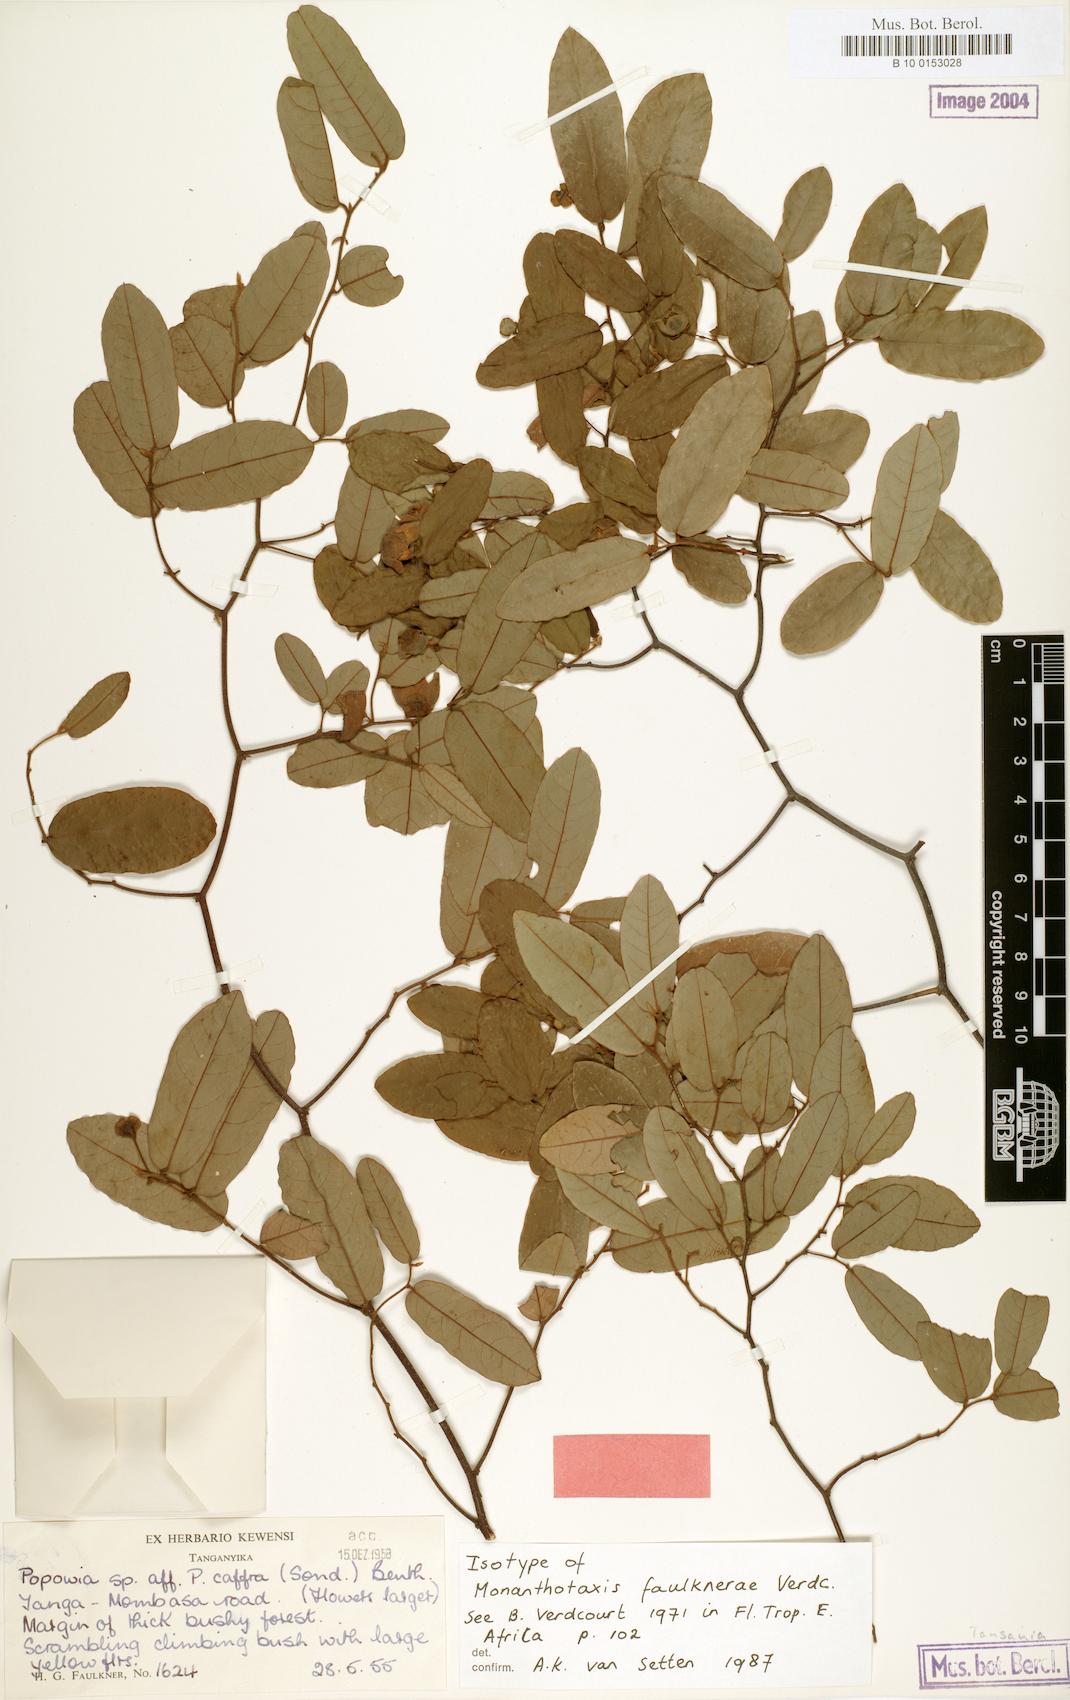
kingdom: Plantae
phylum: Tracheophyta
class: Magnoliopsida
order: Magnoliales
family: Annonaceae
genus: Monanthotaxis
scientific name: Monanthotaxis faulknerae
